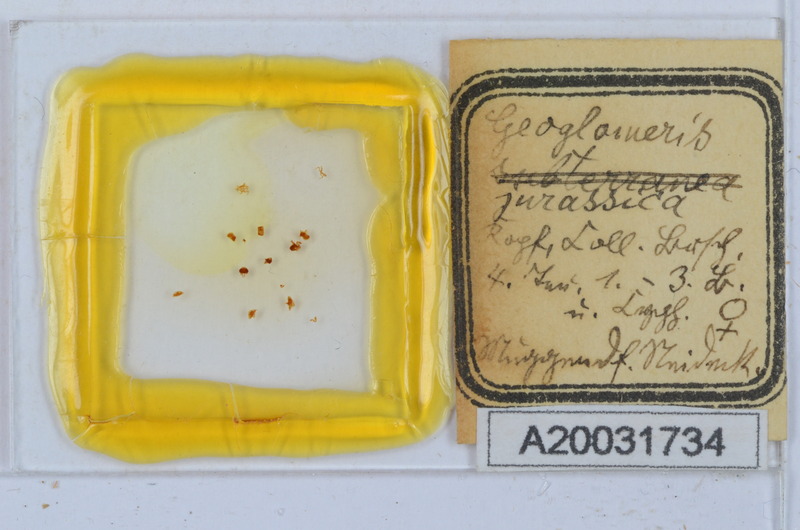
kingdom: Animalia
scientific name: Animalia
